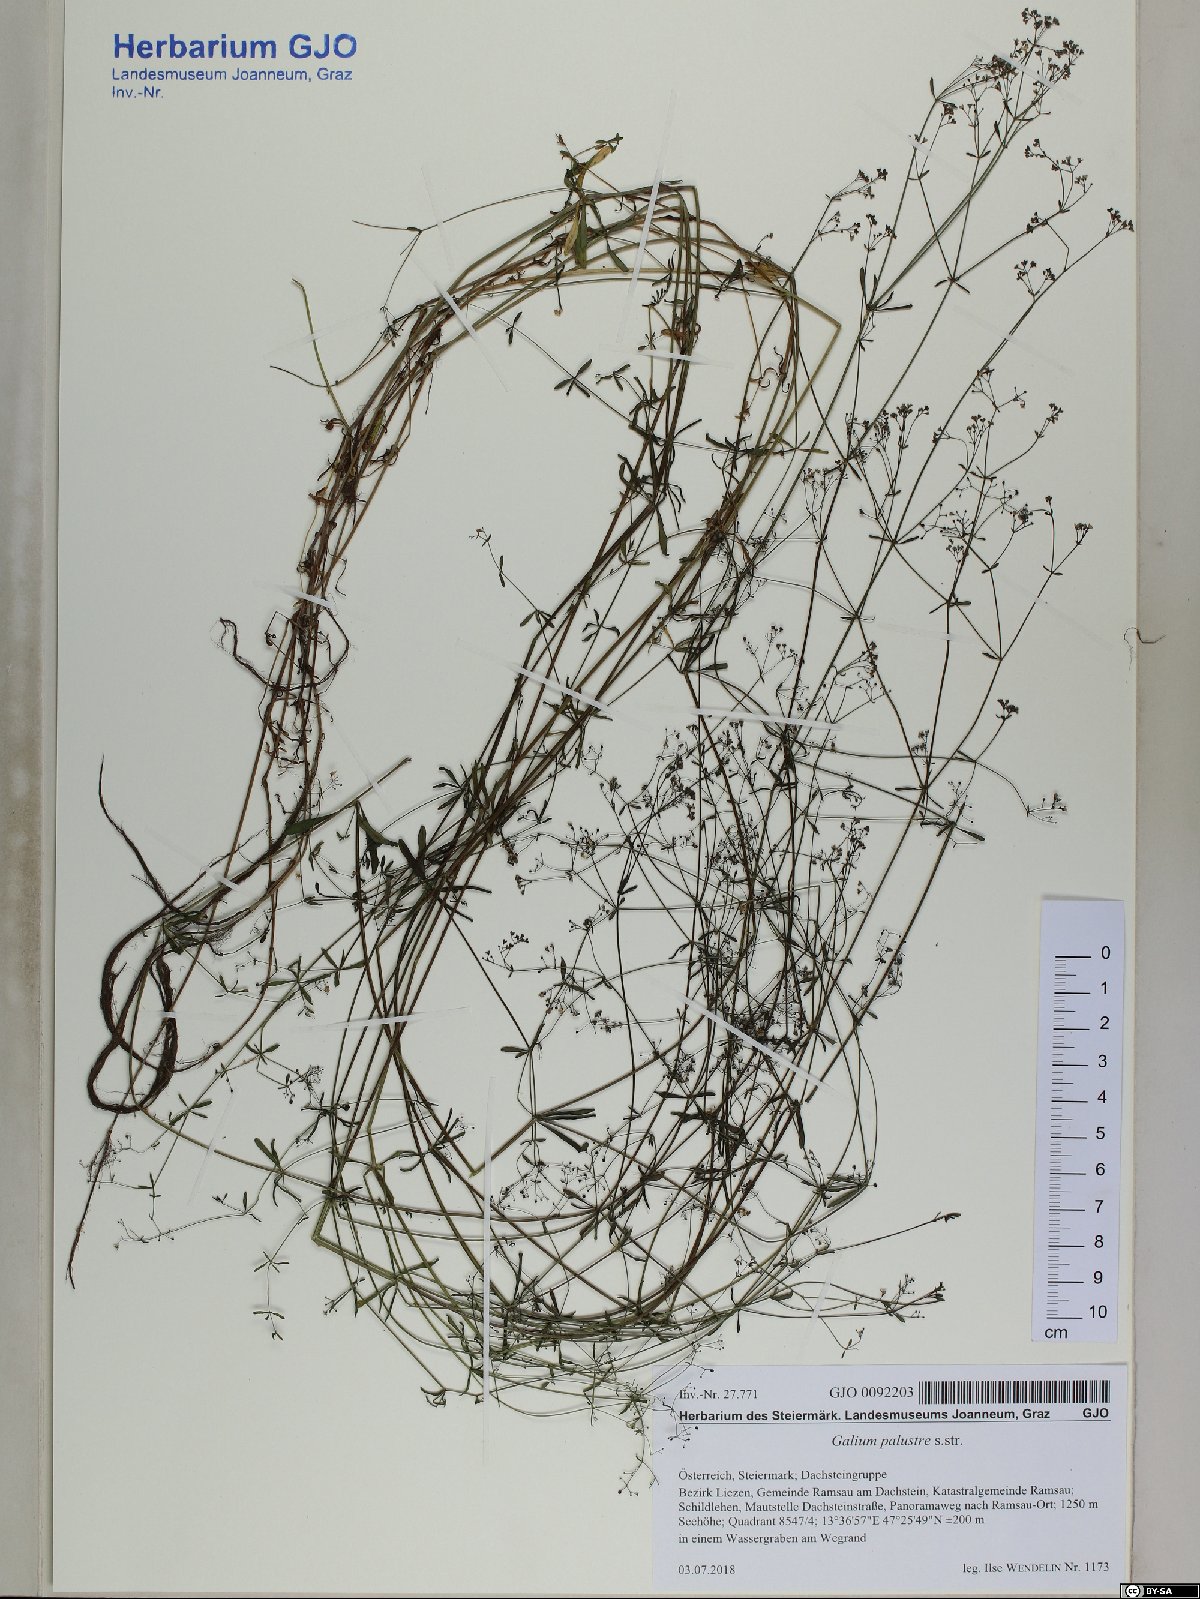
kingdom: Plantae
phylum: Tracheophyta
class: Magnoliopsida
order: Gentianales
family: Rubiaceae
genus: Galium
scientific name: Galium palustre
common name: Common marsh-bedstraw
